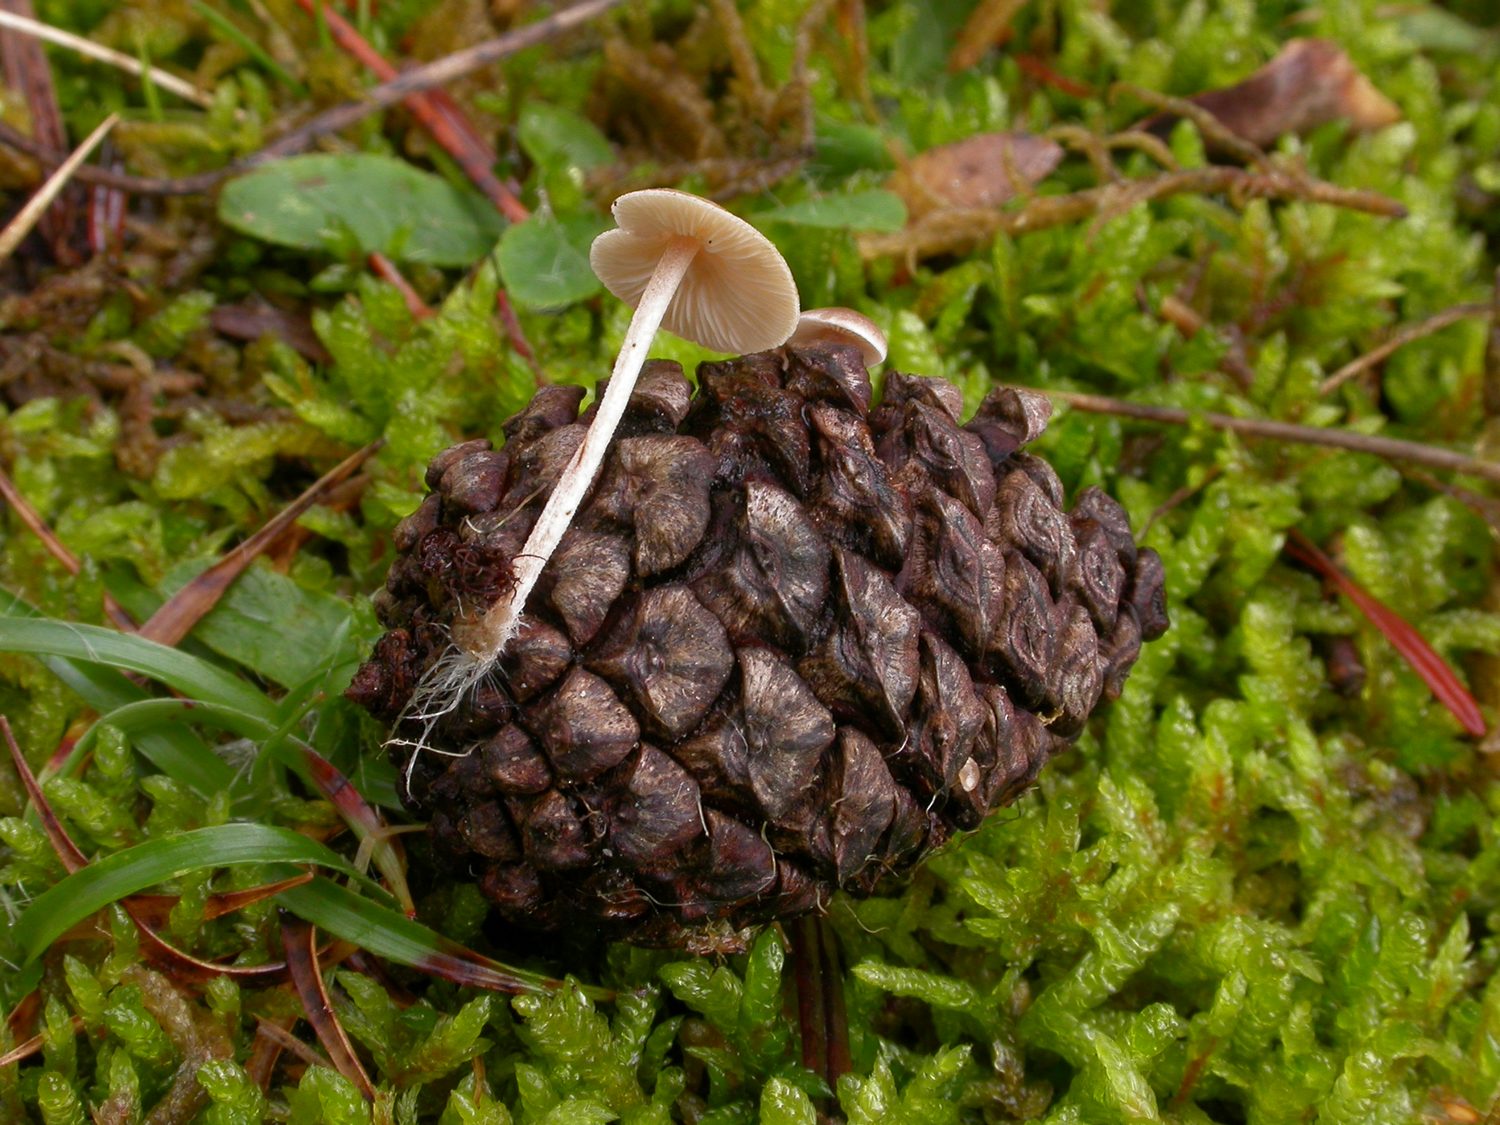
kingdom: Fungi
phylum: Basidiomycota
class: Agaricomycetes
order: Agaricales
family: Marasmiaceae
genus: Baeospora
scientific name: Baeospora myosura
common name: koglebruskhat
